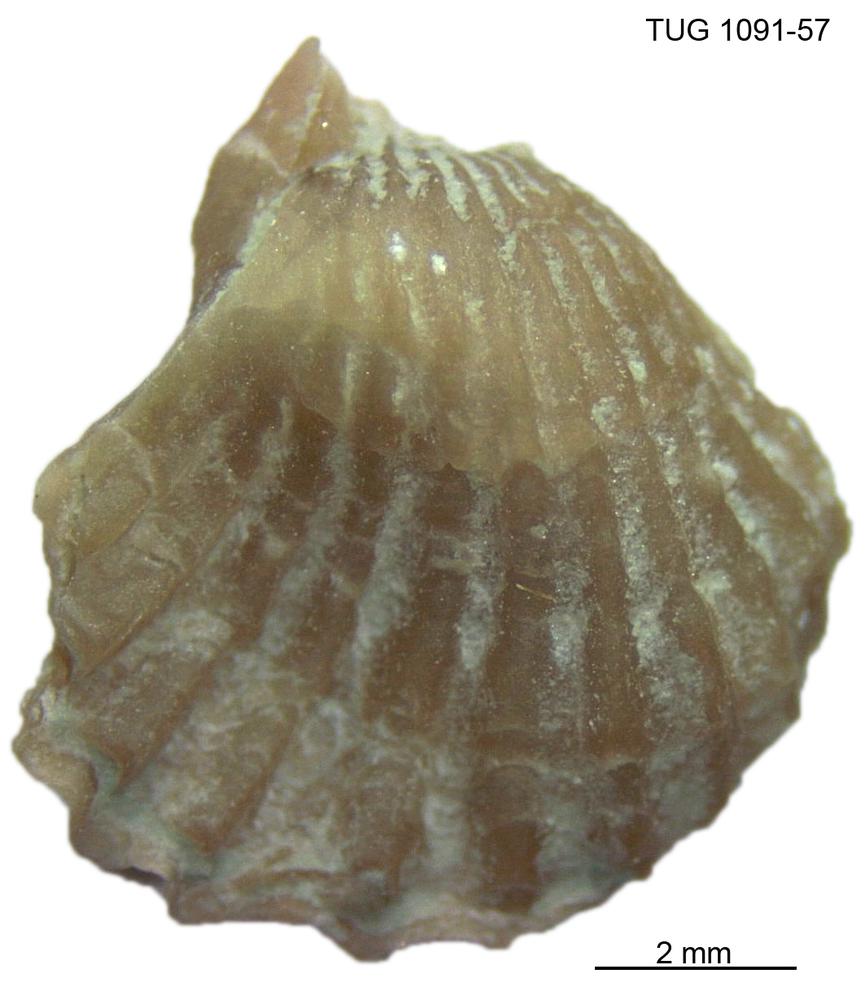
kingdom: Animalia
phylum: Brachiopoda
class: Rhynchonellata
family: Atrypidae
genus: Atrypa
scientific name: Atrypa
